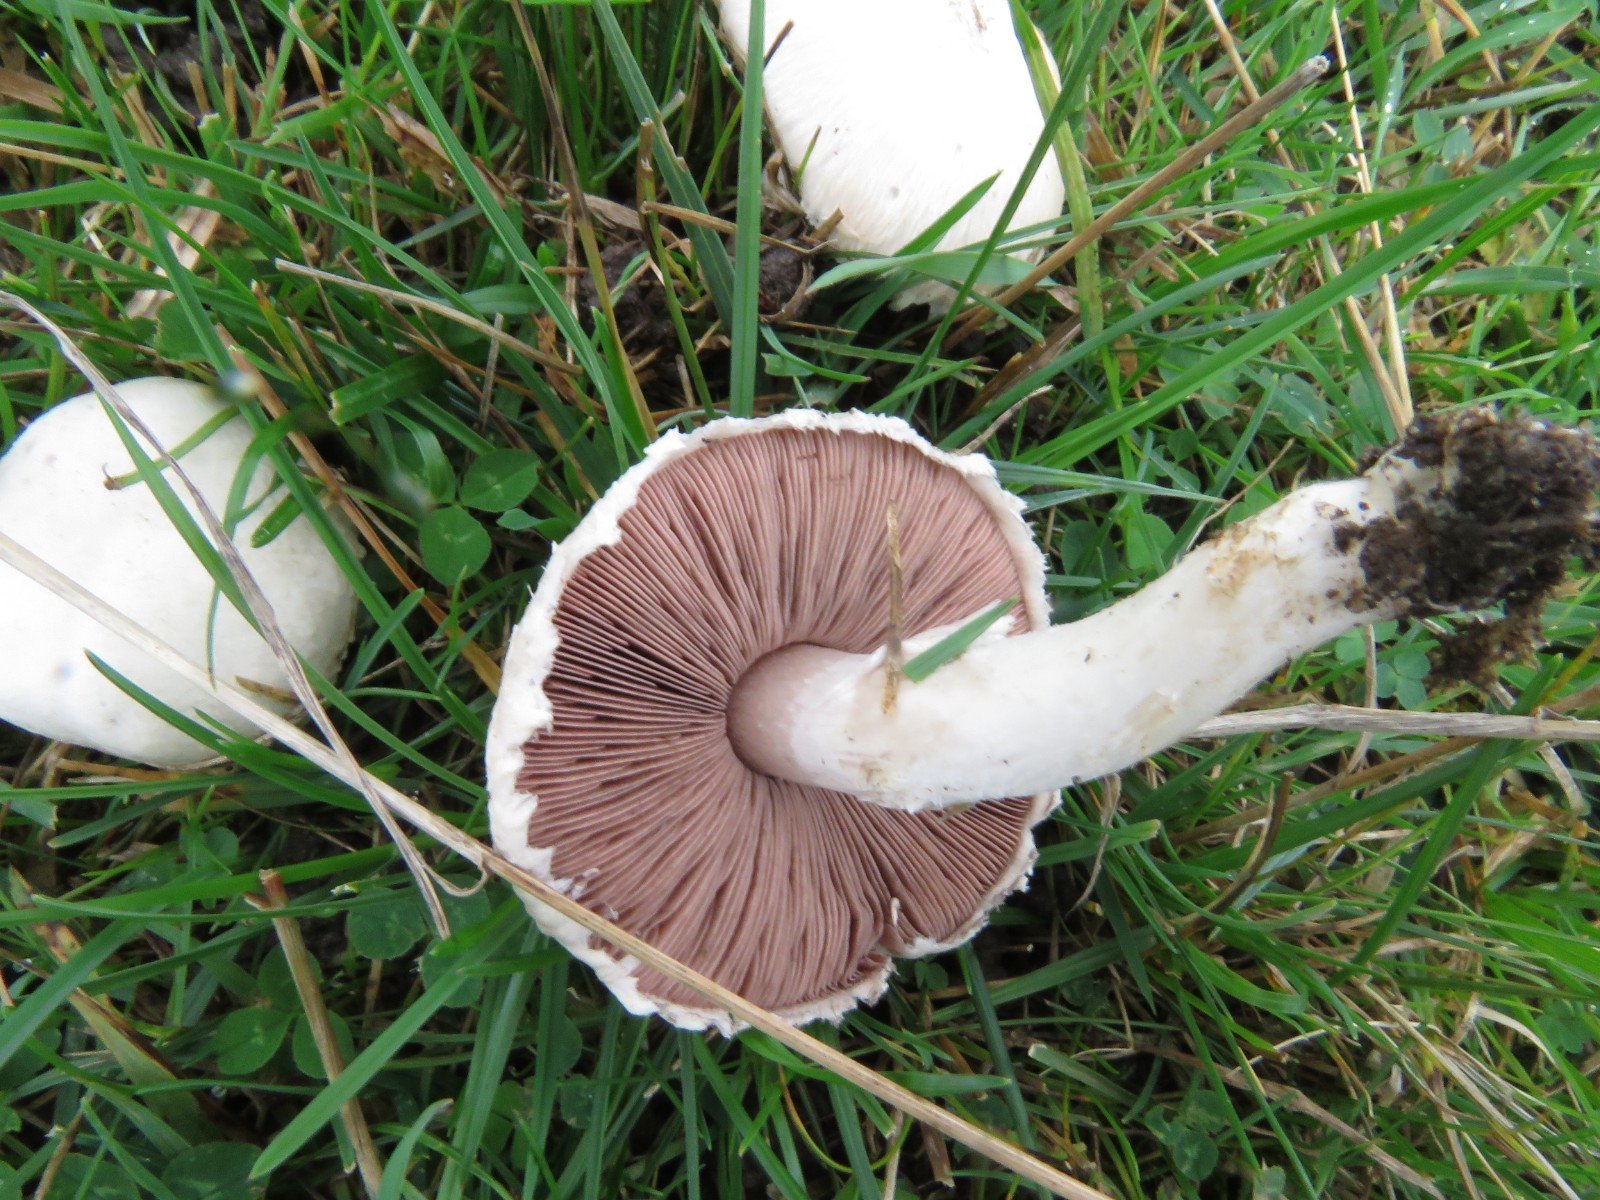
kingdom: Fungi
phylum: Basidiomycota
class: Agaricomycetes
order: Agaricales
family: Agaricaceae
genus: Agaricus
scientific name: Agaricus campestris
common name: mark-champignon
